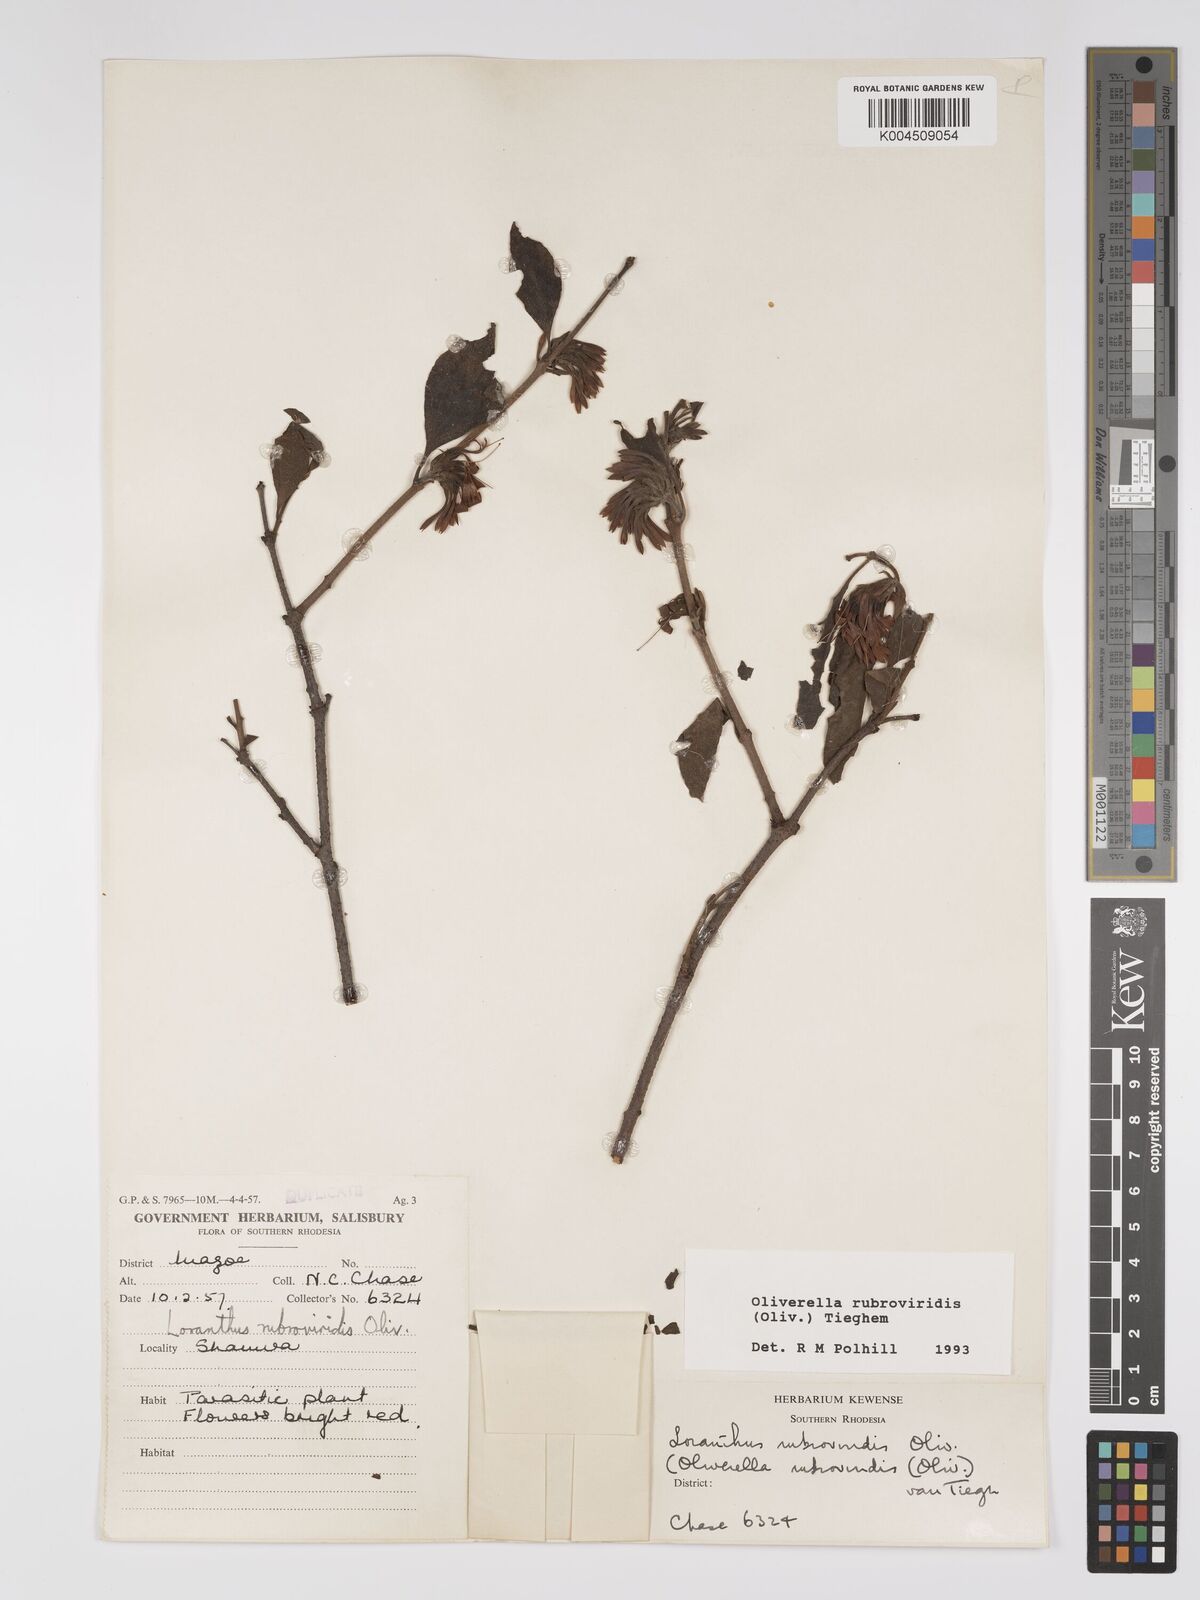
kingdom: Plantae
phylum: Tracheophyta
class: Magnoliopsida
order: Santalales
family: Loranthaceae
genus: Oliverella
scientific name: Oliverella rubroviridis
